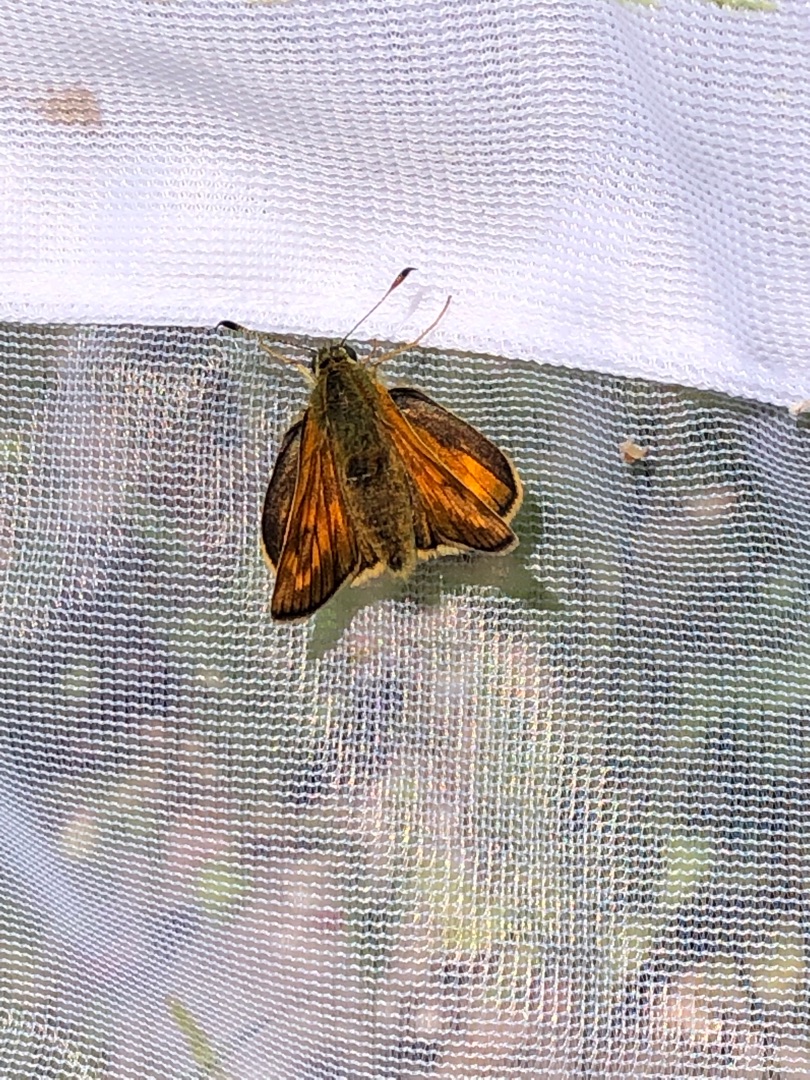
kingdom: Animalia
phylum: Arthropoda
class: Insecta
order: Lepidoptera
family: Hesperiidae
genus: Ochlodes
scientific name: Ochlodes venata
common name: Stor bredpande
